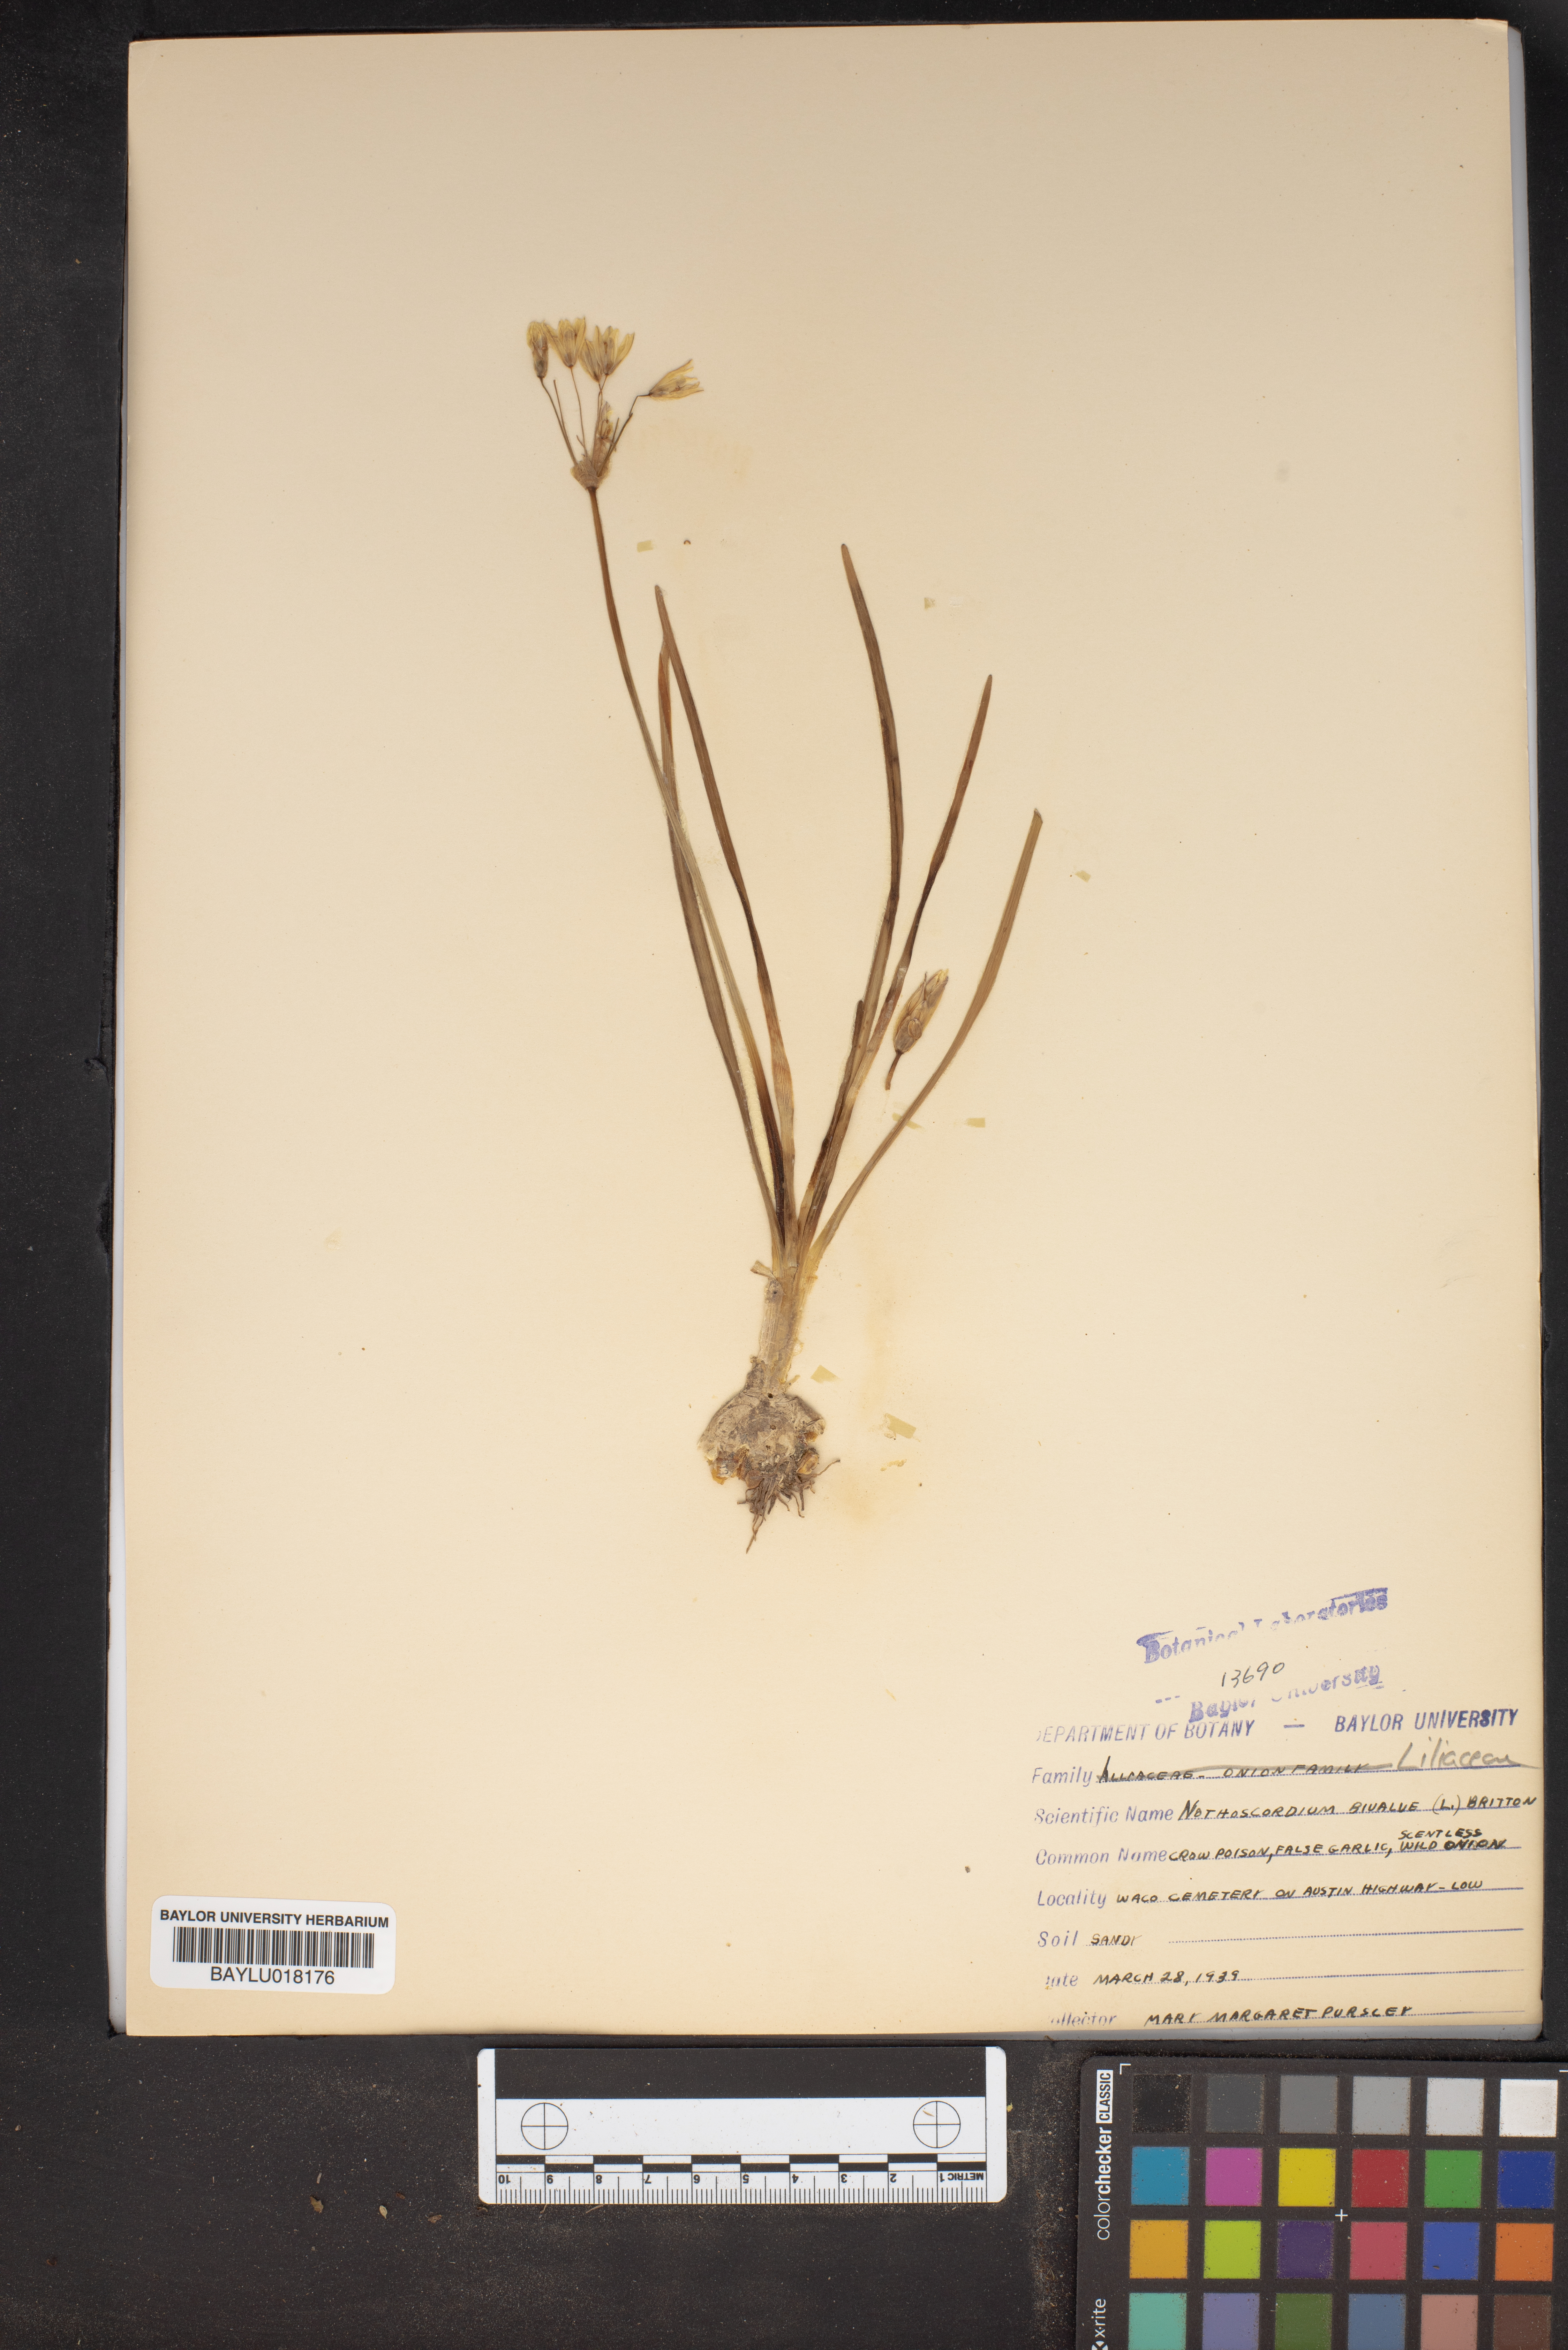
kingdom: Plantae
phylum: Tracheophyta
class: Liliopsida
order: Asparagales
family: Amaryllidaceae
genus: Nothoscordum
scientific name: Nothoscordum bivalve
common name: Crow-poison
